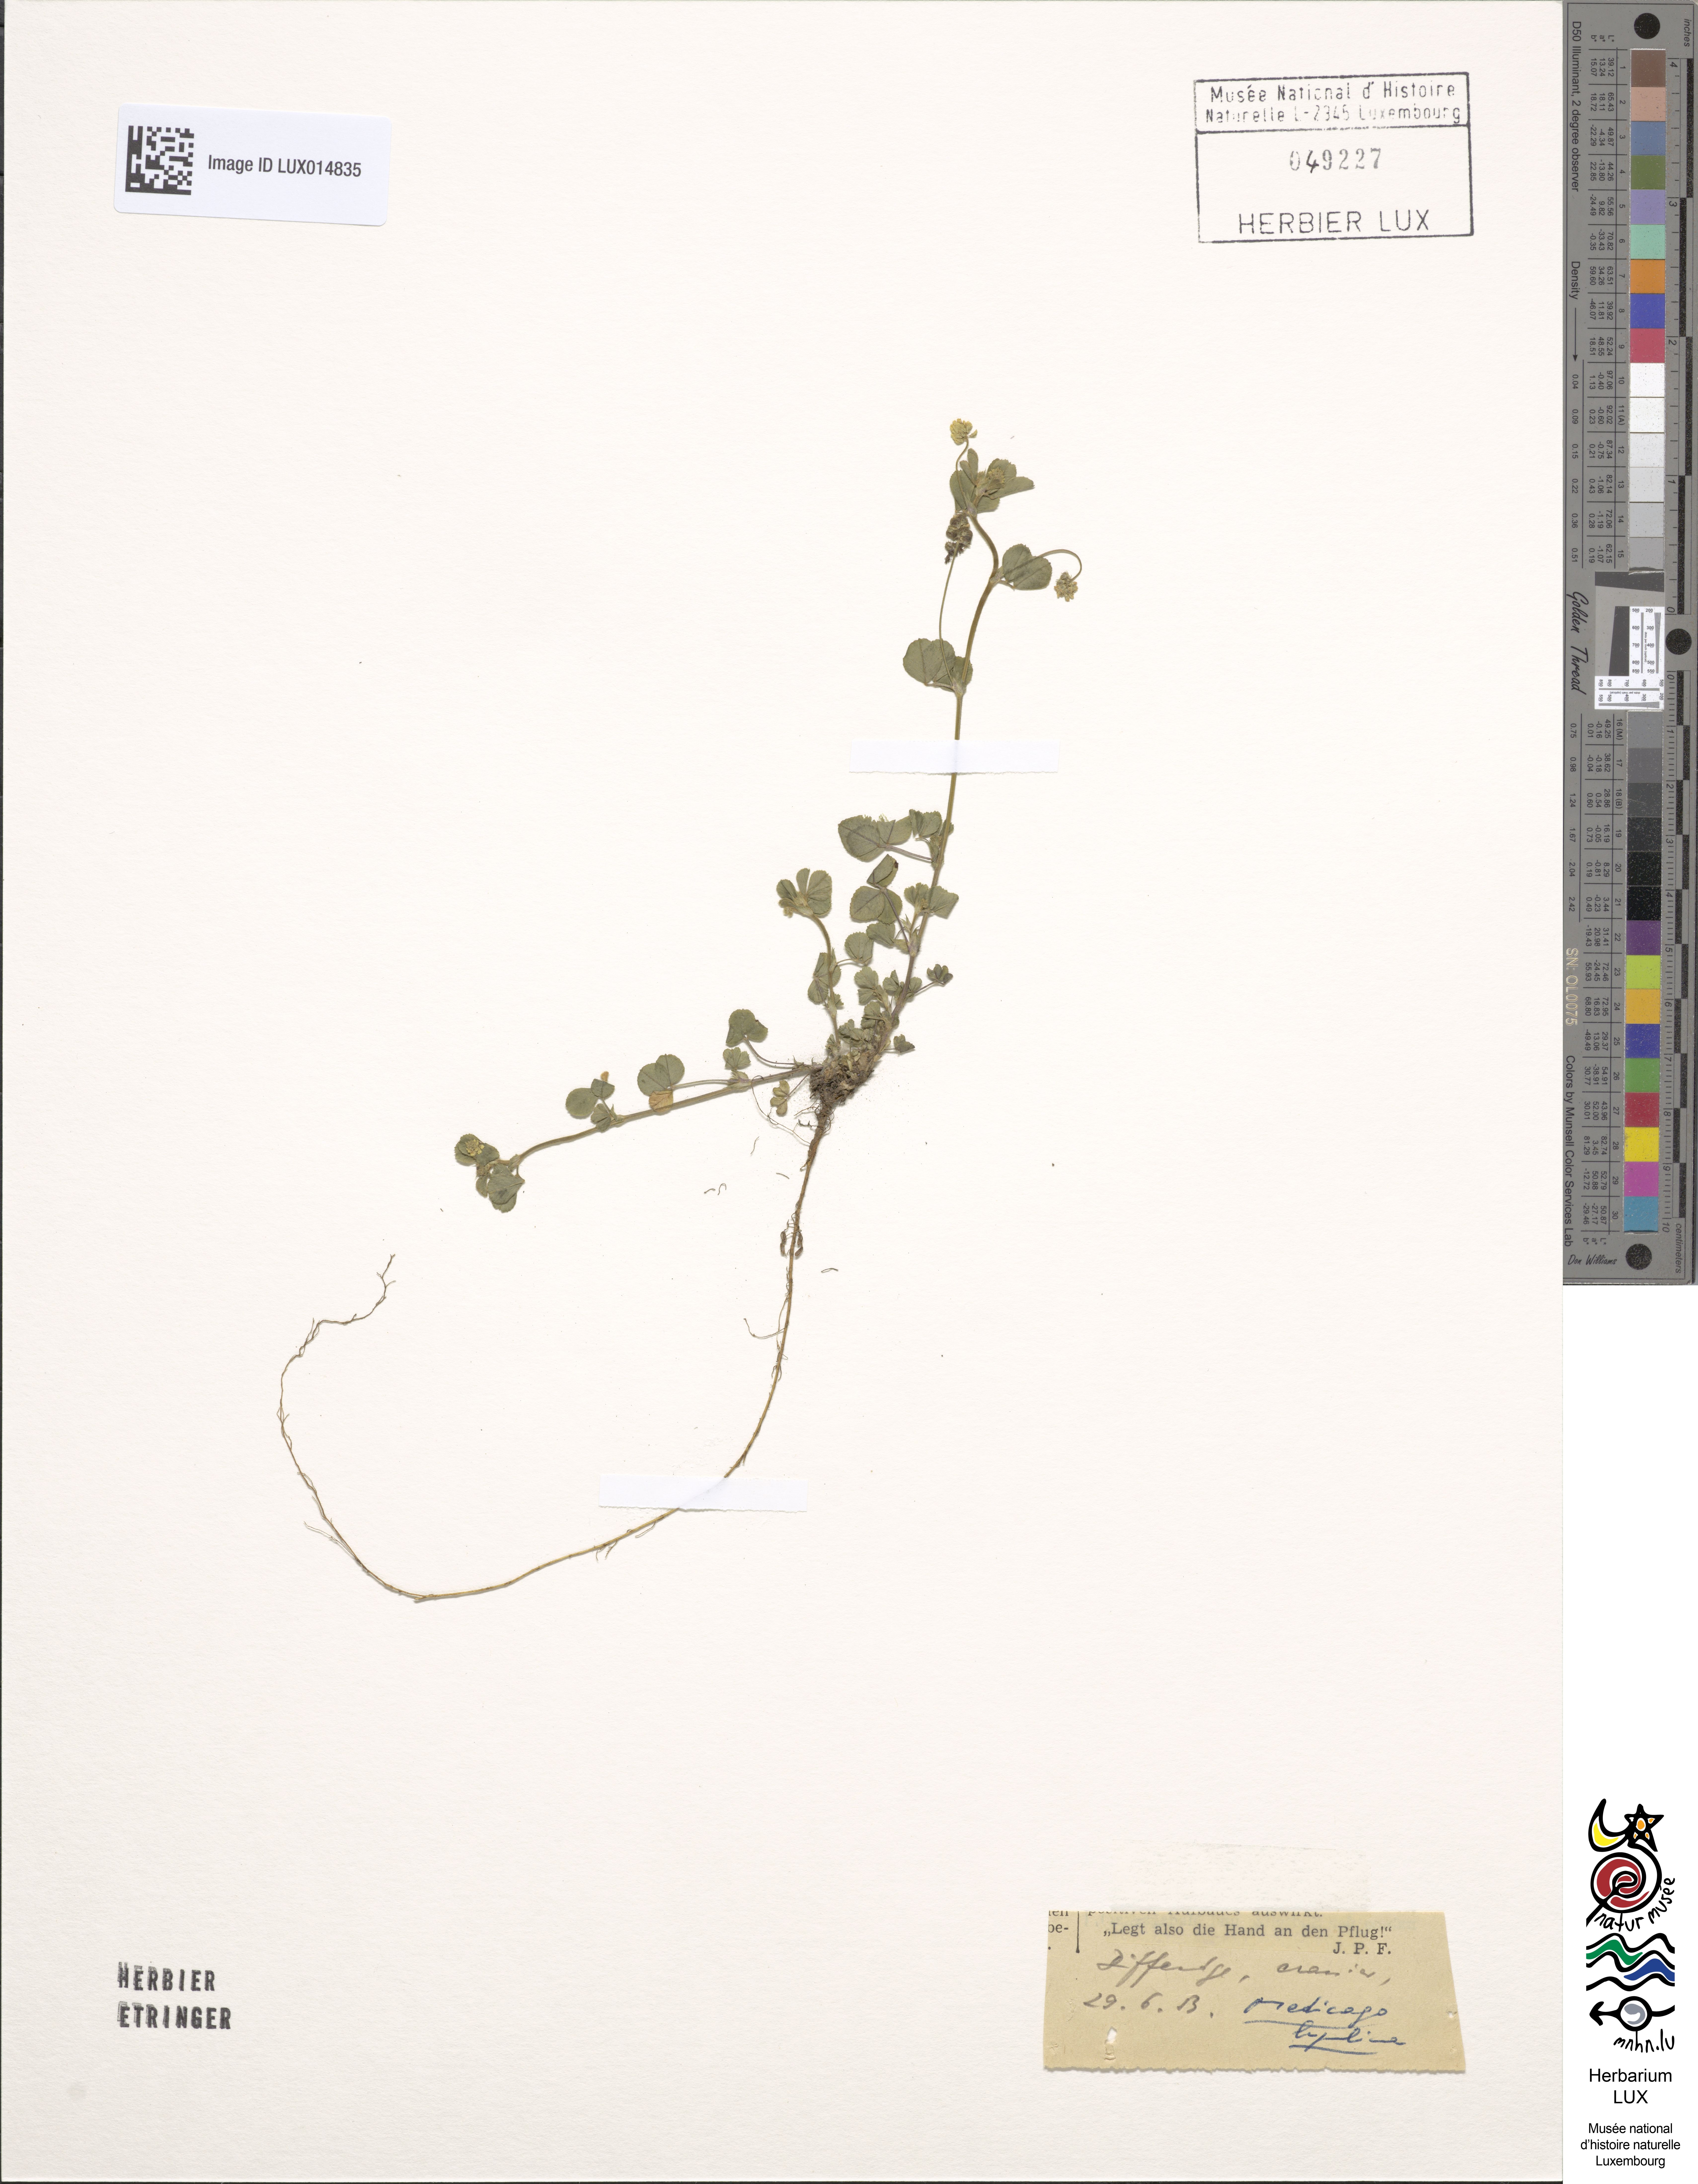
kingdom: Plantae
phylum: Tracheophyta
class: Magnoliopsida
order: Fabales
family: Fabaceae
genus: Medicago
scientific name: Medicago lupulina
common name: Black medick
